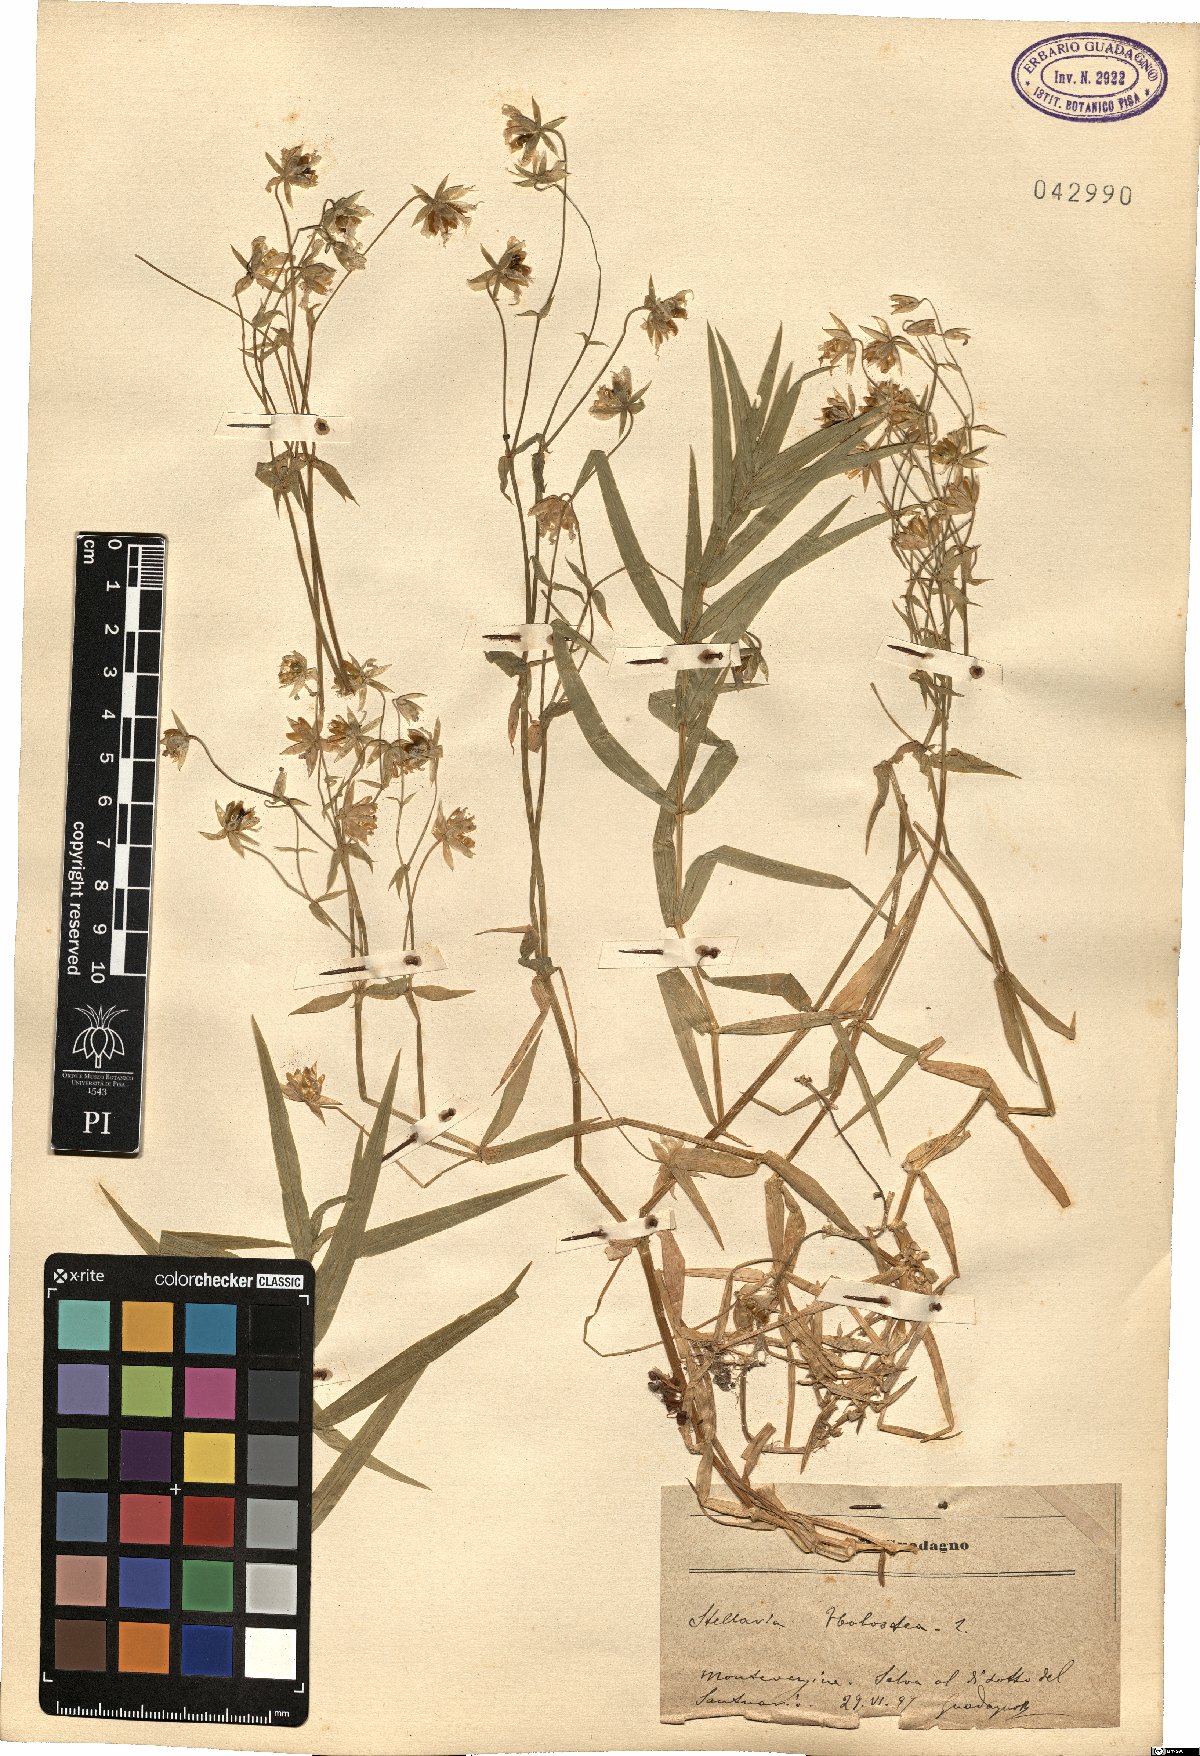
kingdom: Plantae
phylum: Tracheophyta
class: Magnoliopsida
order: Caryophyllales
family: Caryophyllaceae
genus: Rabelera
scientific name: Rabelera holostea
